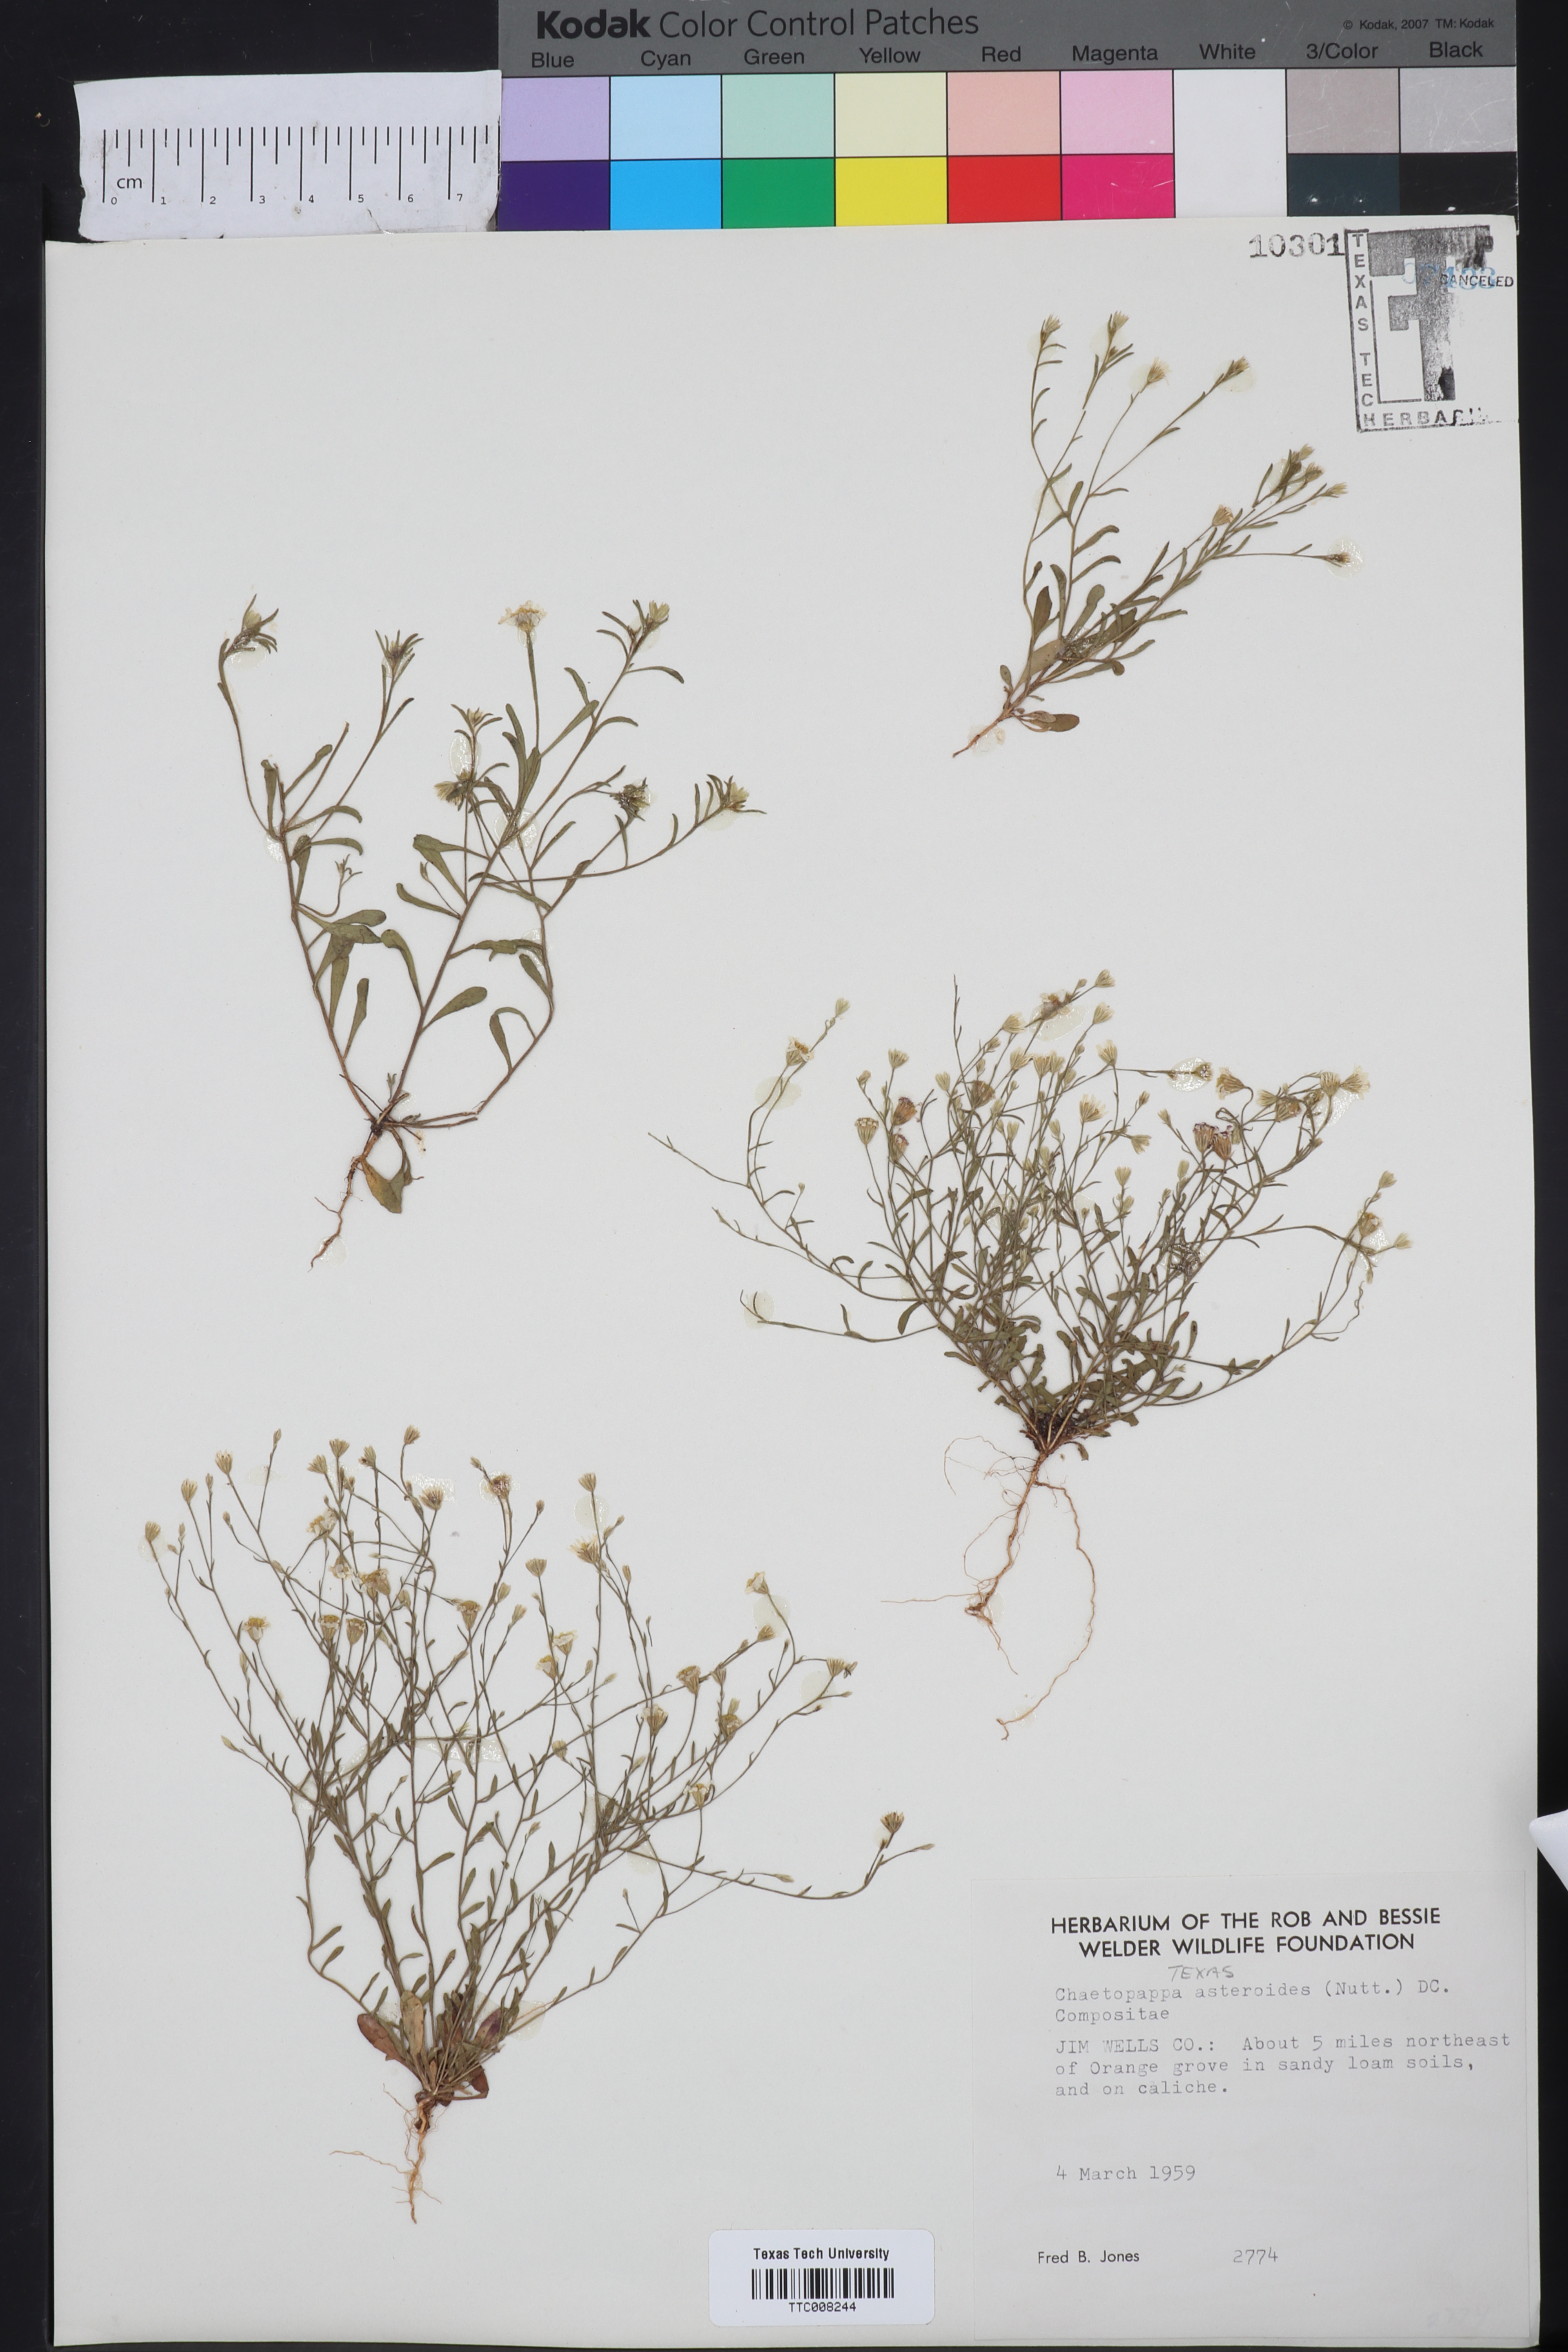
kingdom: Plantae
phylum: Tracheophyta
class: Magnoliopsida
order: Asterales
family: Asteraceae
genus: Chaetopappa
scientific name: Chaetopappa asteroides
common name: Tiny lazy daisy
